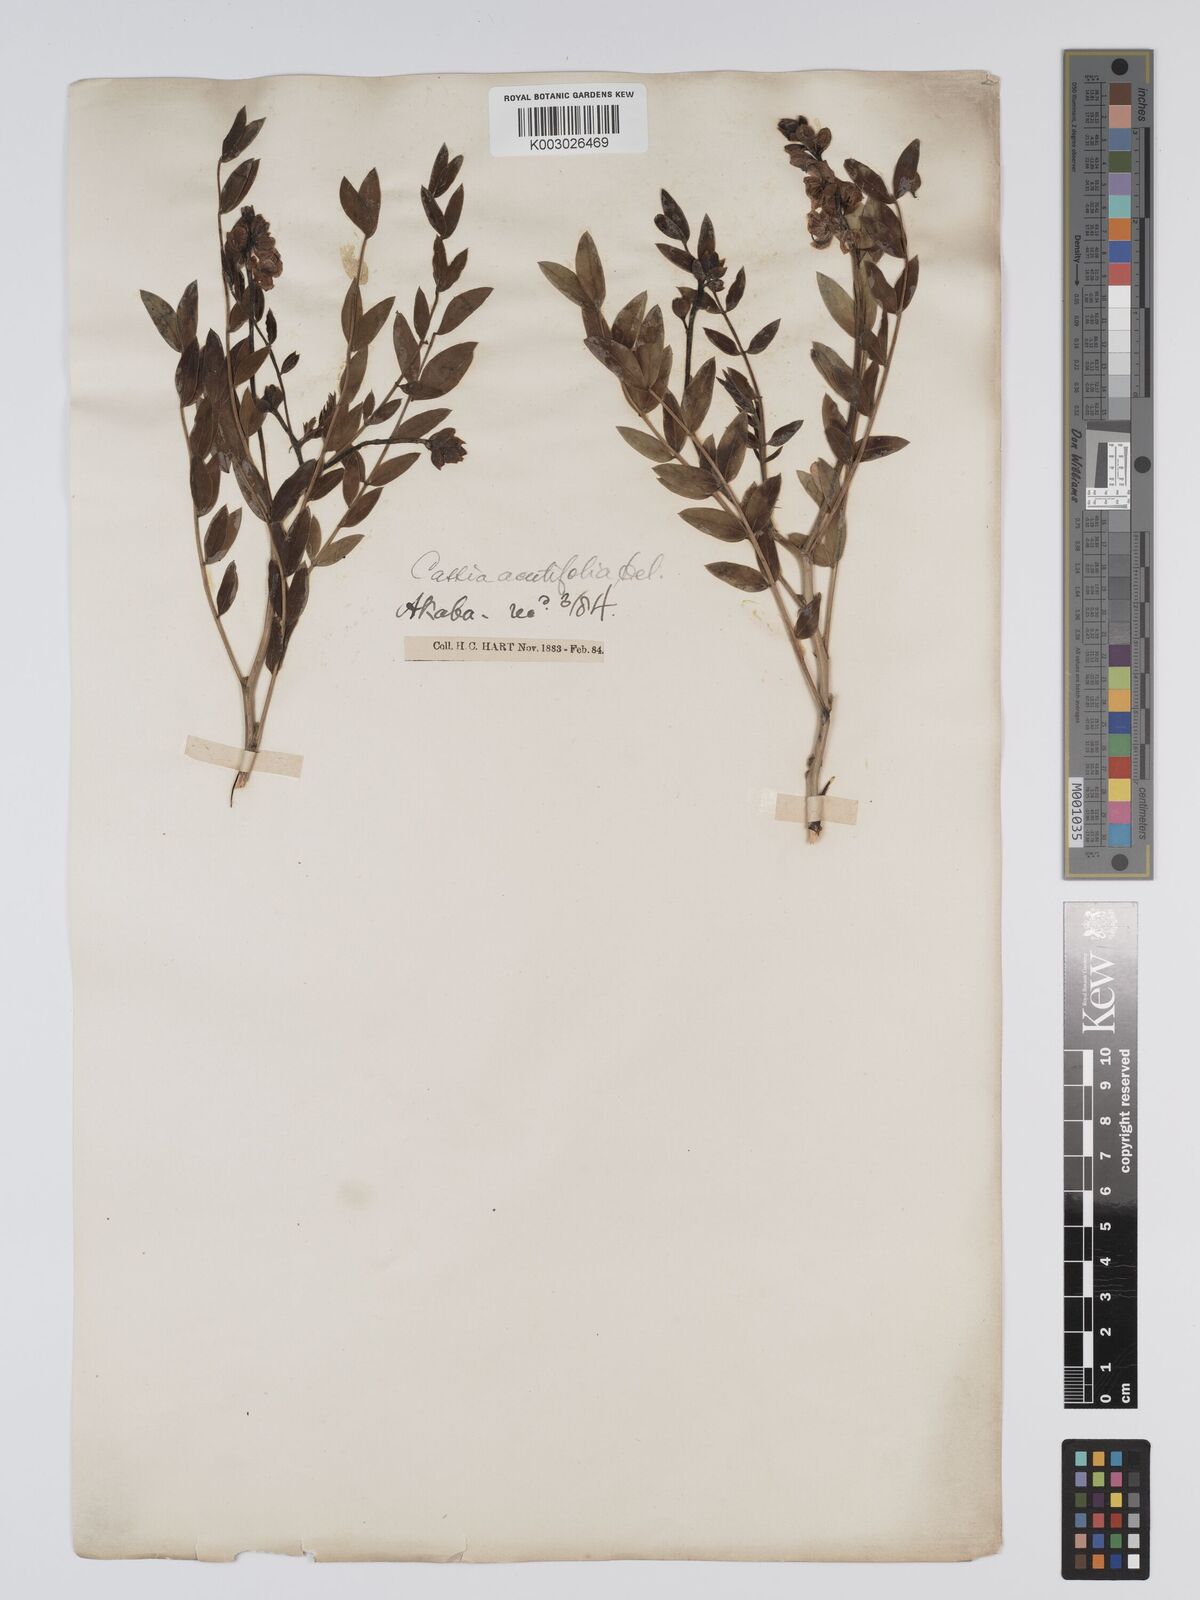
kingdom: Plantae
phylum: Tracheophyta
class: Magnoliopsida
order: Fabales
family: Fabaceae
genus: Senna
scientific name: Senna alexandrina
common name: True senna
